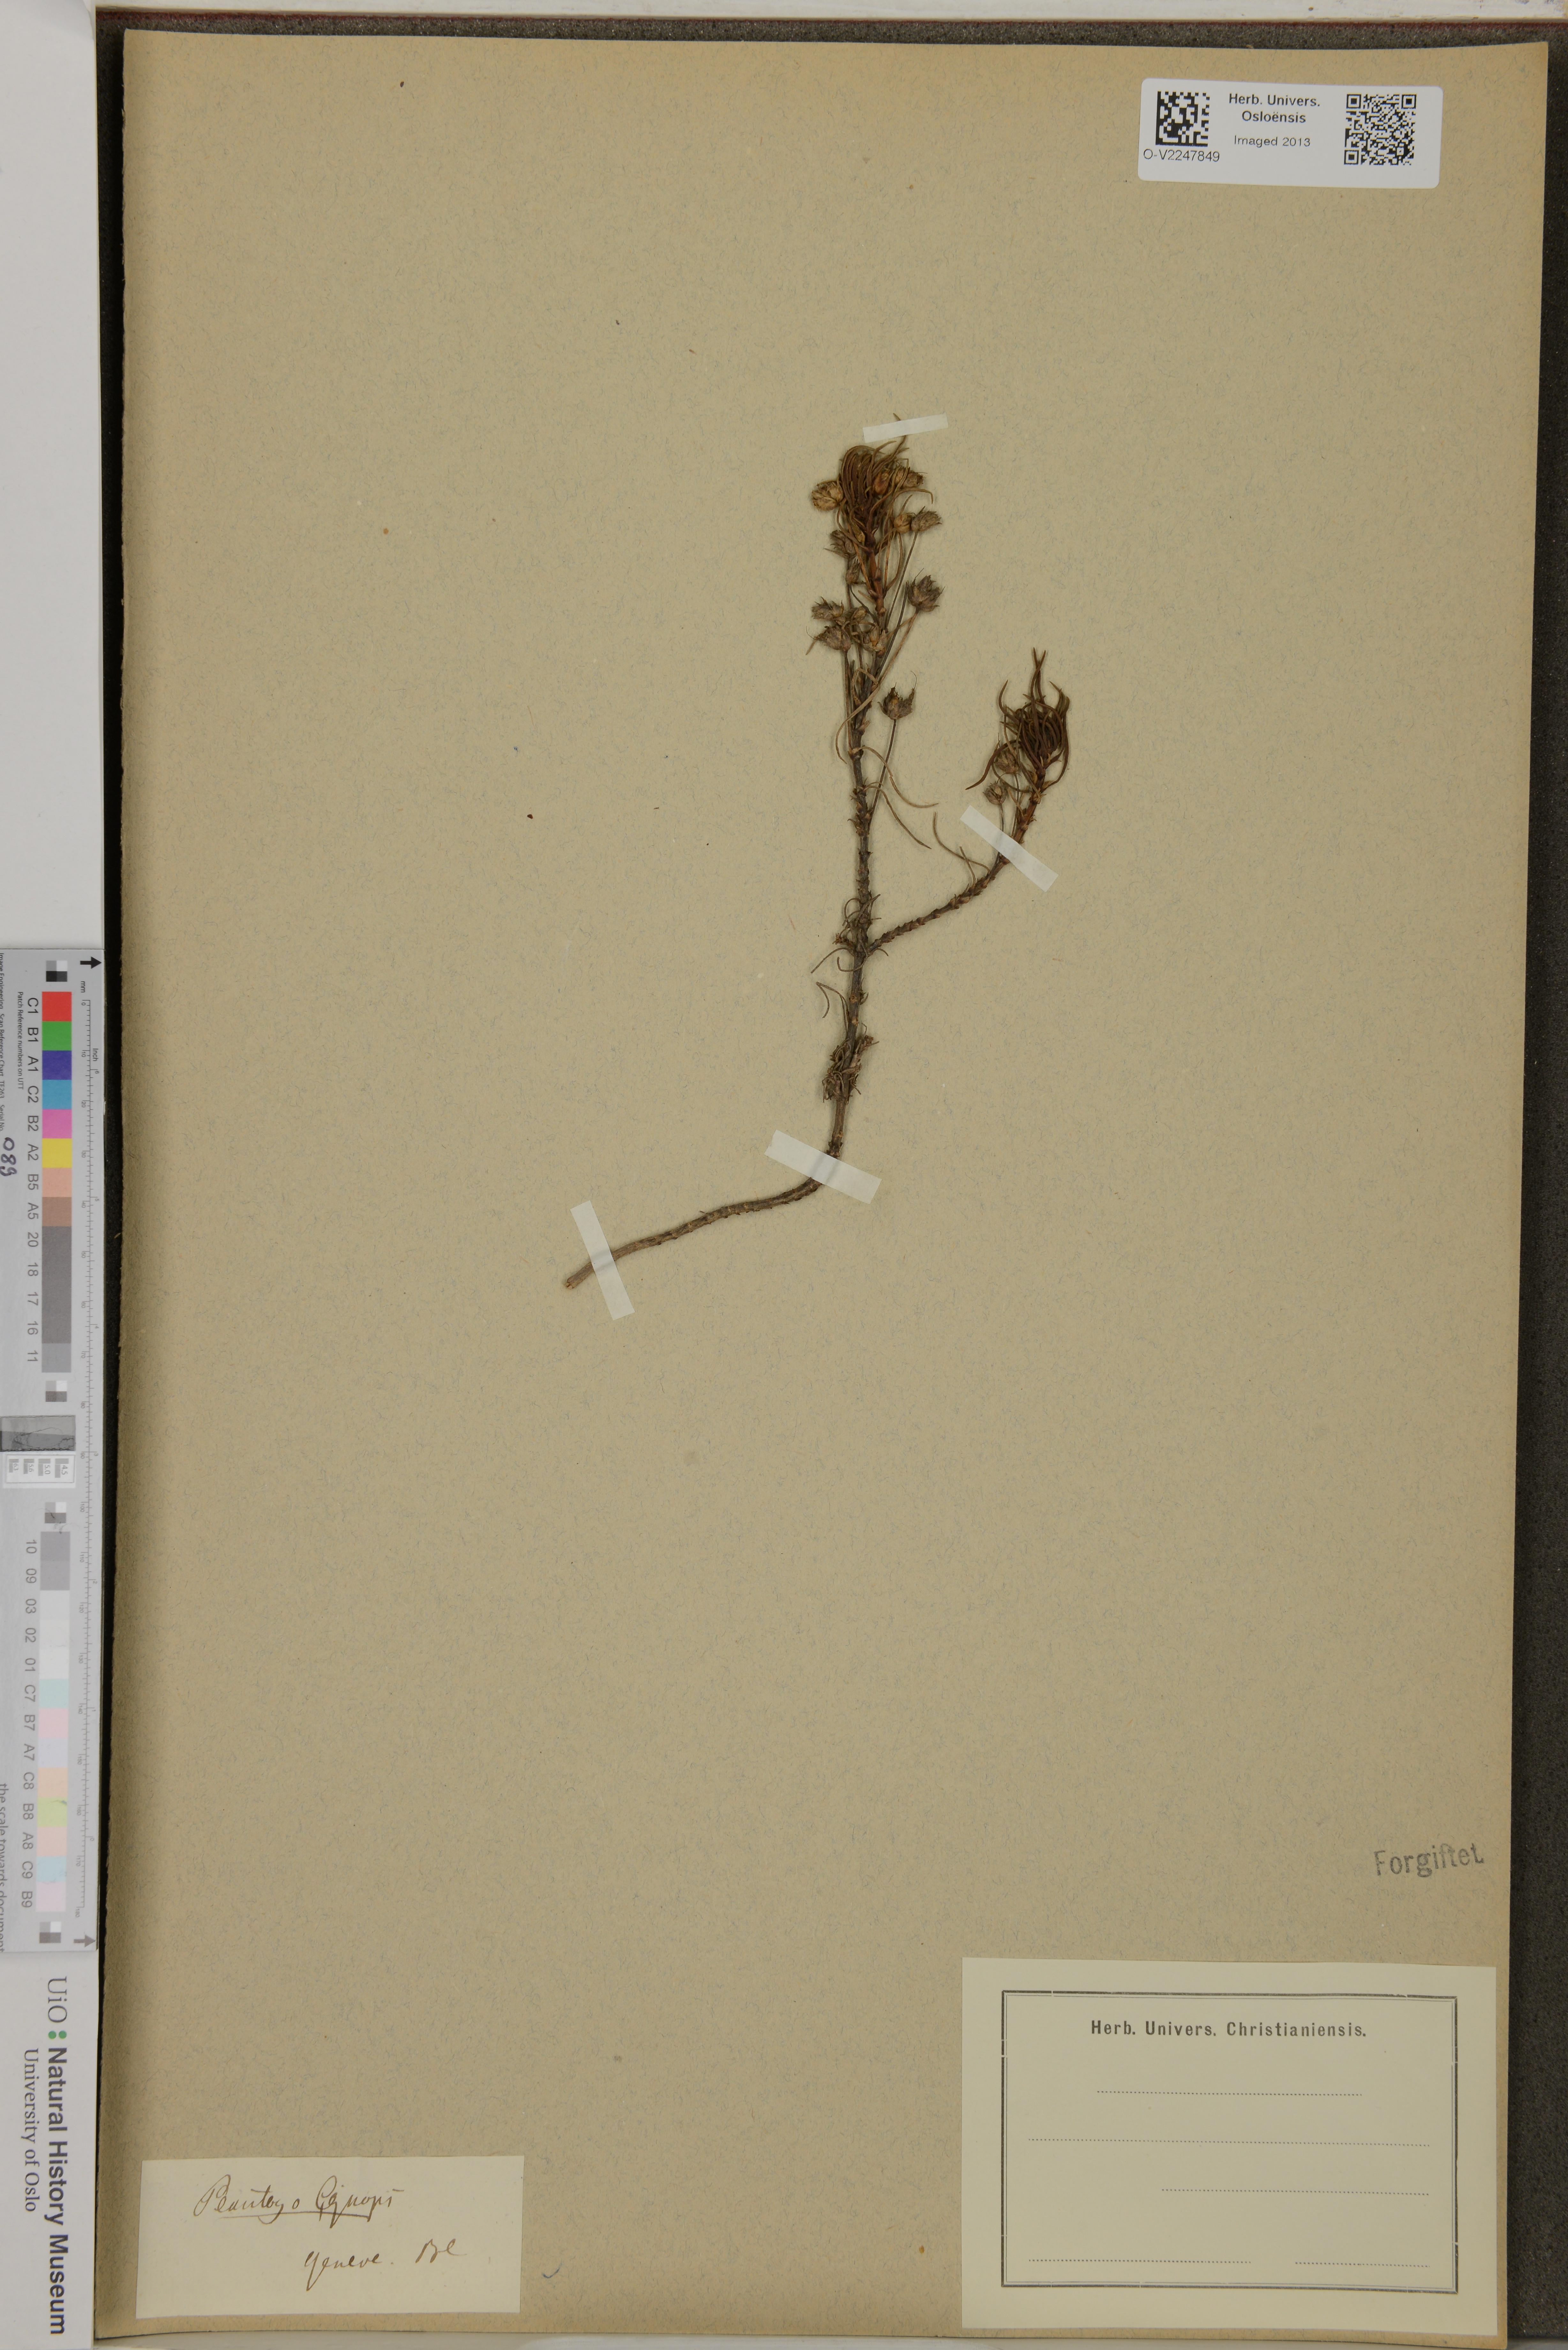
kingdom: Plantae
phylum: Tracheophyta
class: Magnoliopsida
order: Lamiales
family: Plantaginaceae
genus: Plantago
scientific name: Plantago
